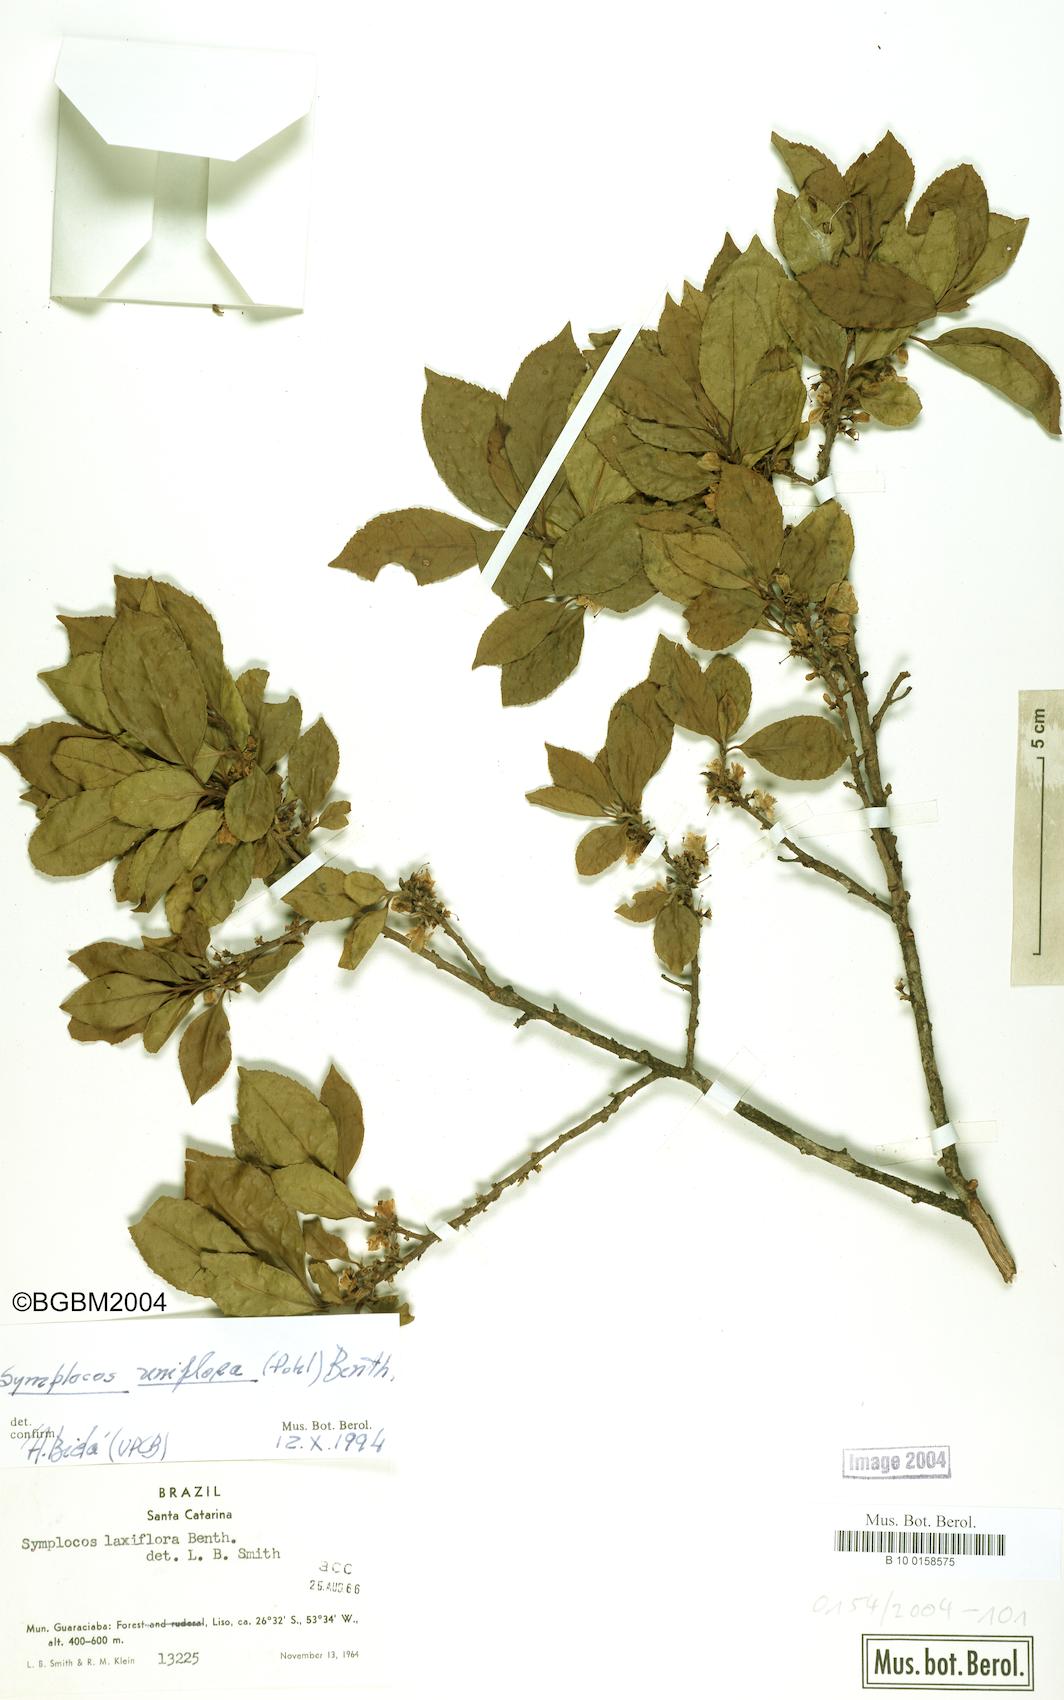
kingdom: Plantae
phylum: Tracheophyta
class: Magnoliopsida
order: Ericales
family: Symplocaceae
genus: Symplocos
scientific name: Symplocos uniflora
